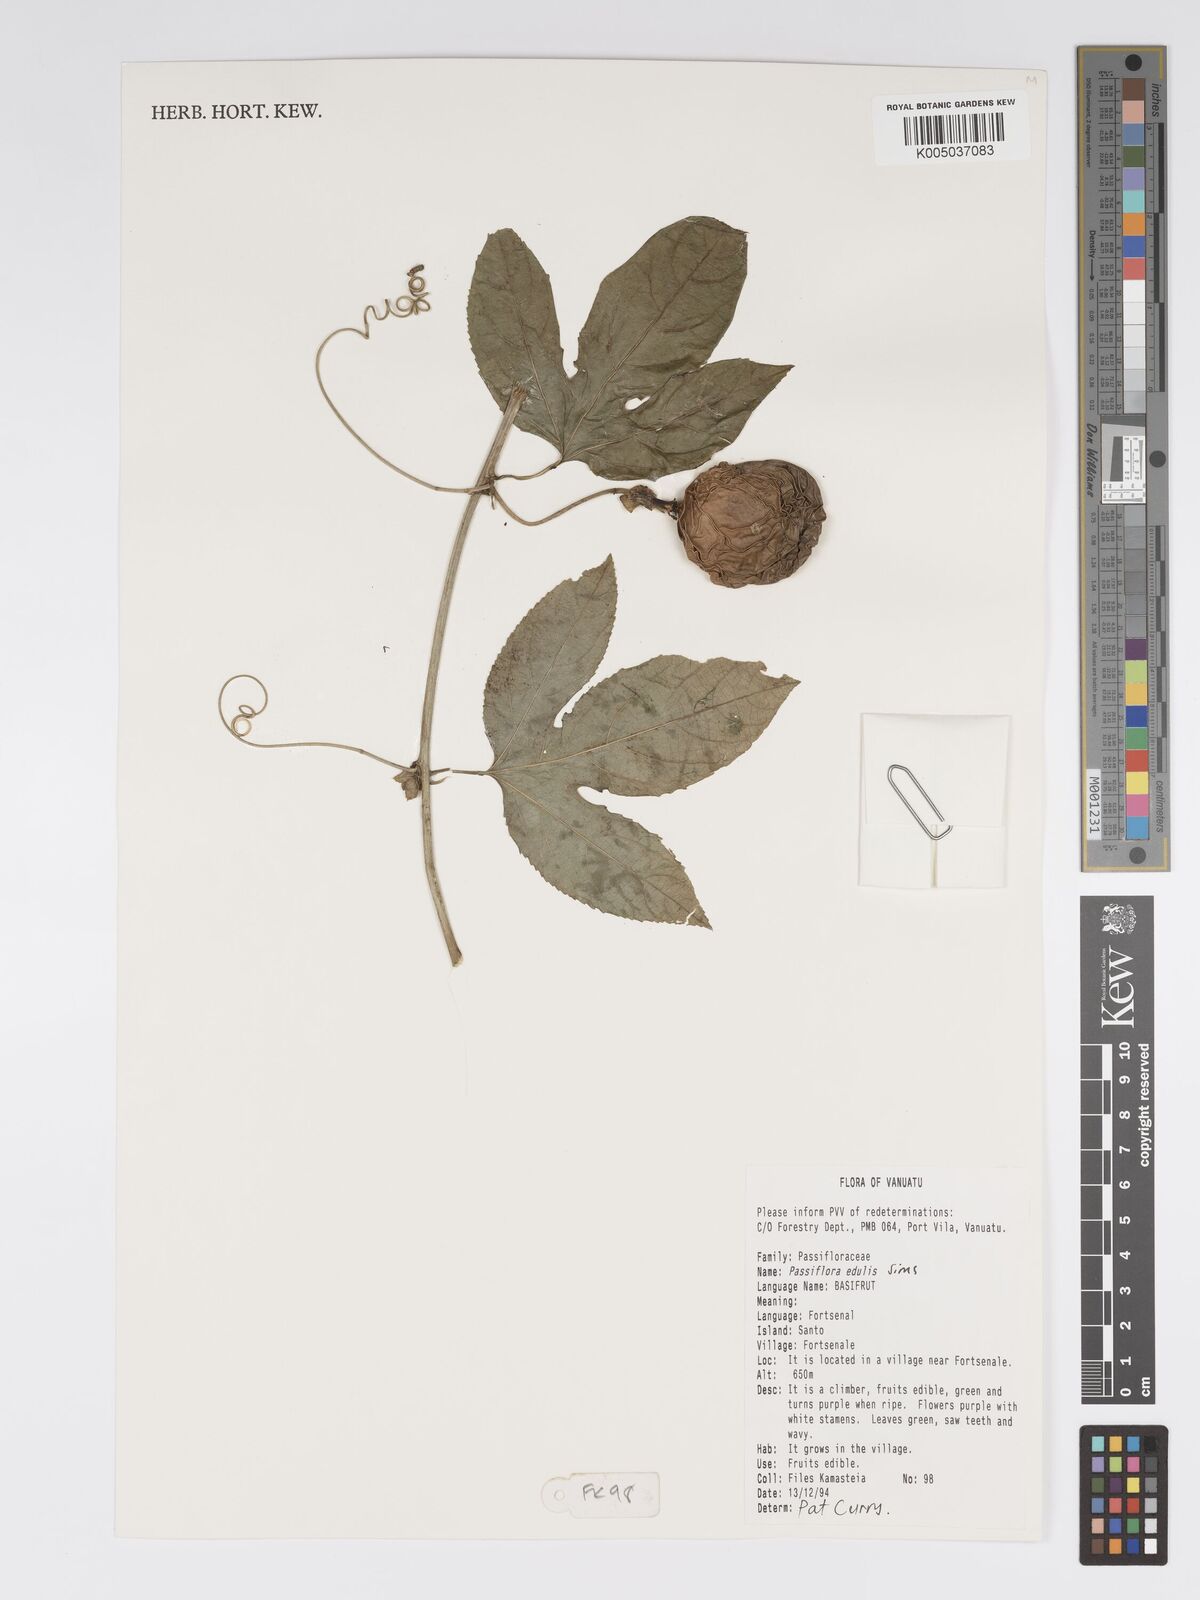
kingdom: Plantae
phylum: Tracheophyta
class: Magnoliopsida
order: Malpighiales
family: Passifloraceae
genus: Passiflora
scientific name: Passiflora edulis
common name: Purple granadilla
